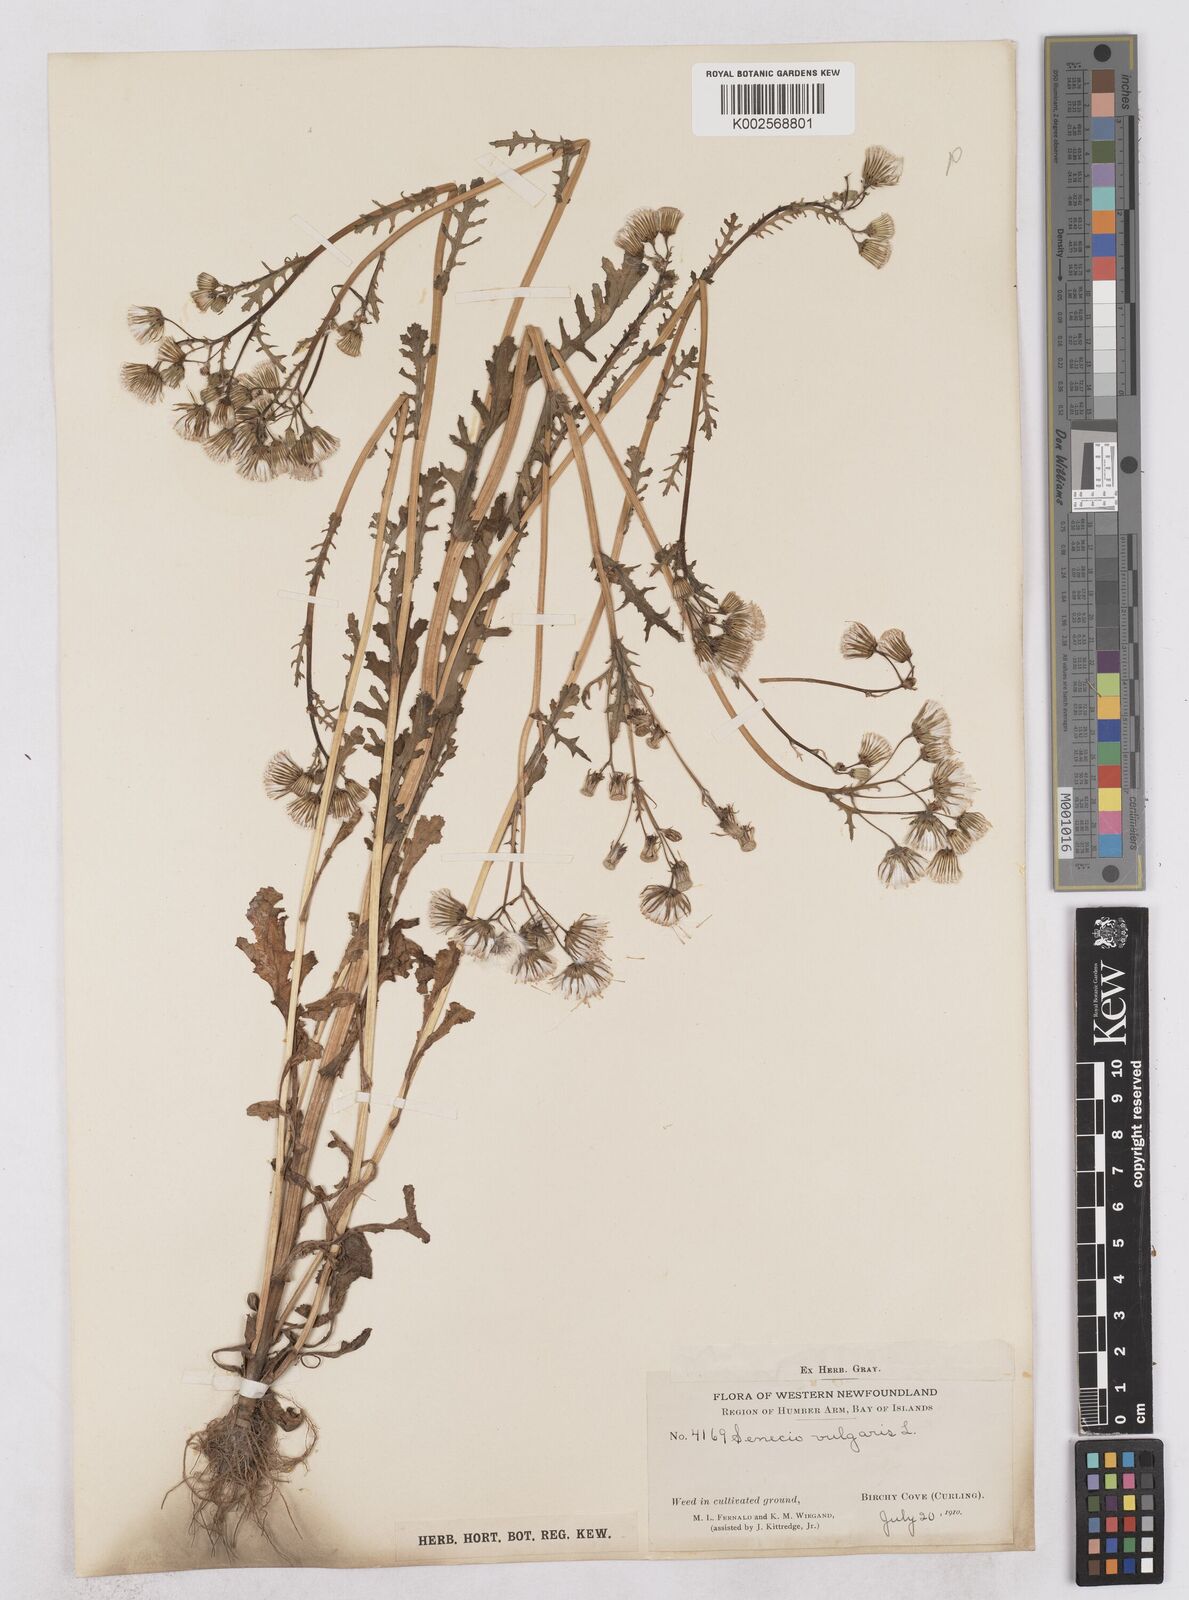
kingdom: Plantae
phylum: Tracheophyta
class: Magnoliopsida
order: Asterales
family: Asteraceae
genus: Senecio
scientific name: Senecio vulgaris
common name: Old-man-in-the-spring
